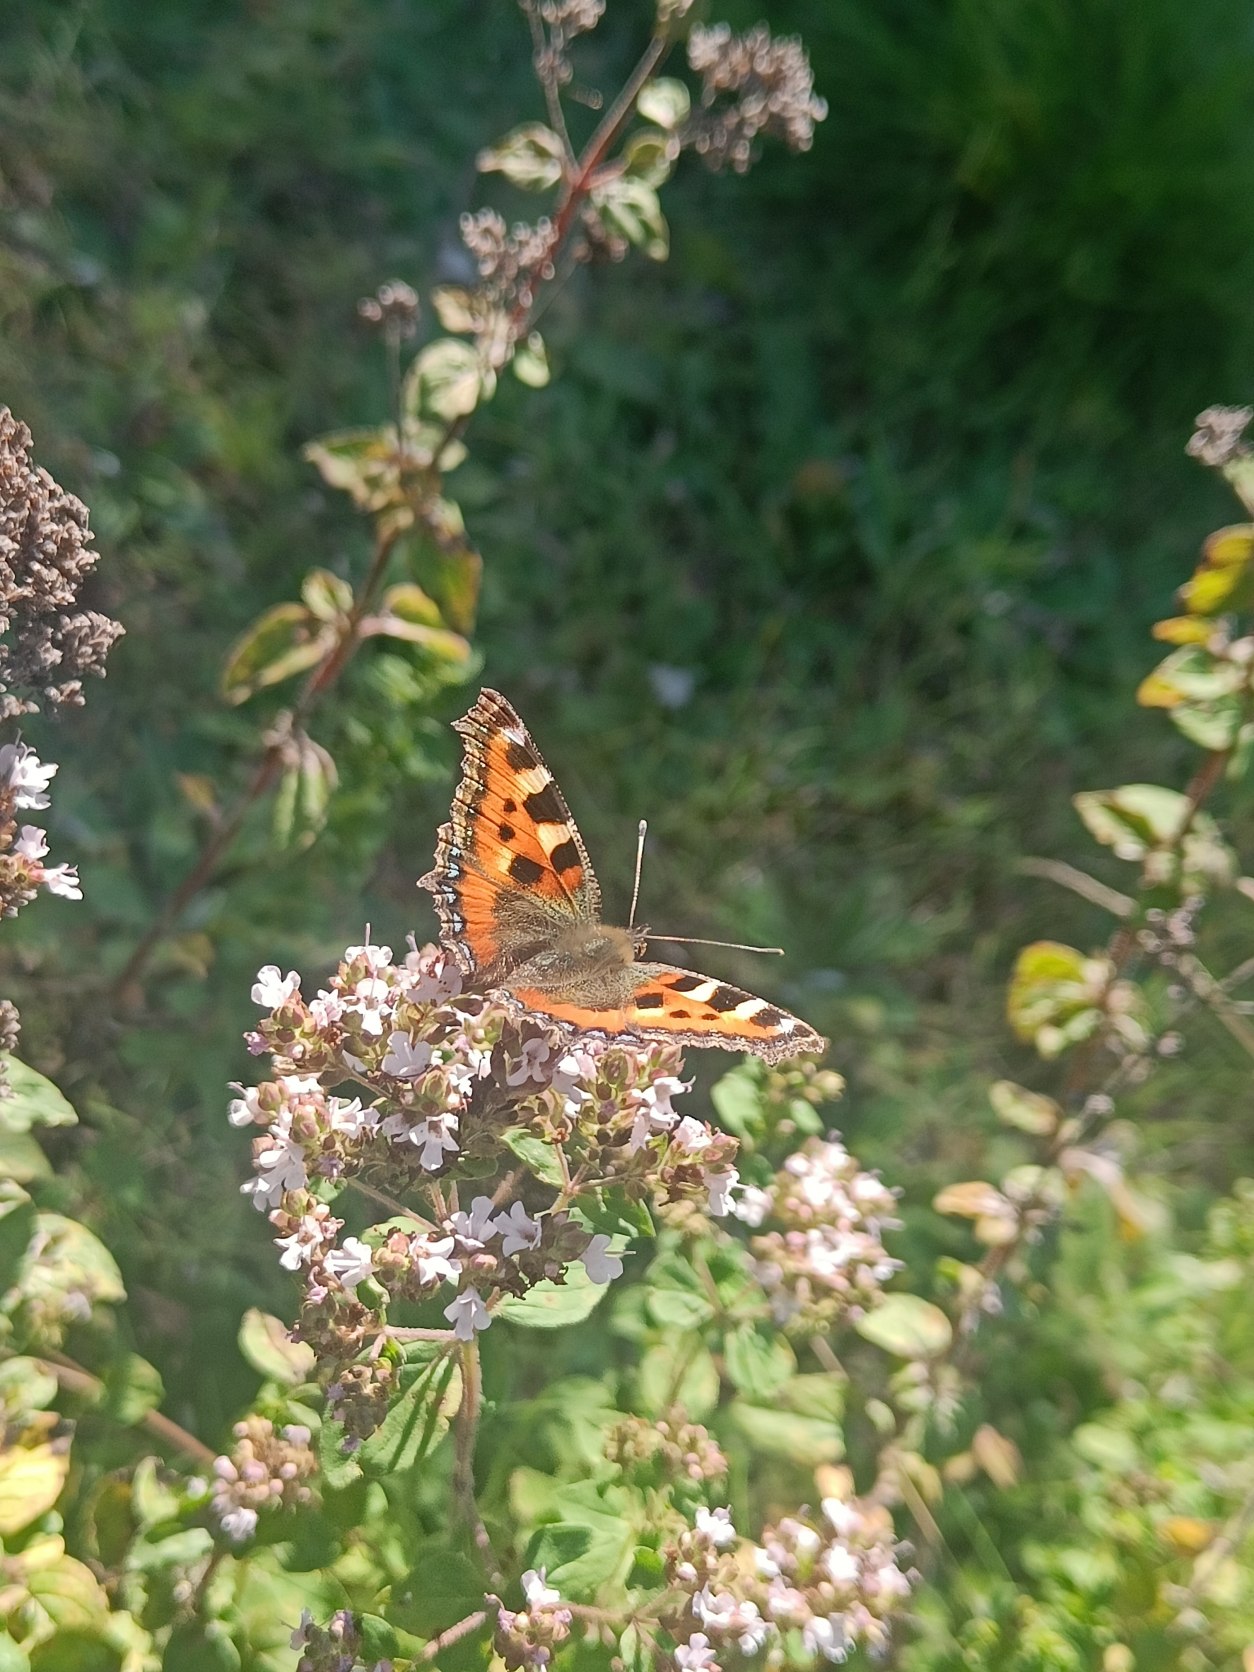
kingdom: Animalia
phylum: Arthropoda
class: Insecta
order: Lepidoptera
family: Nymphalidae
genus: Aglais
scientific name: Aglais urticae
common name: Nældens takvinge
